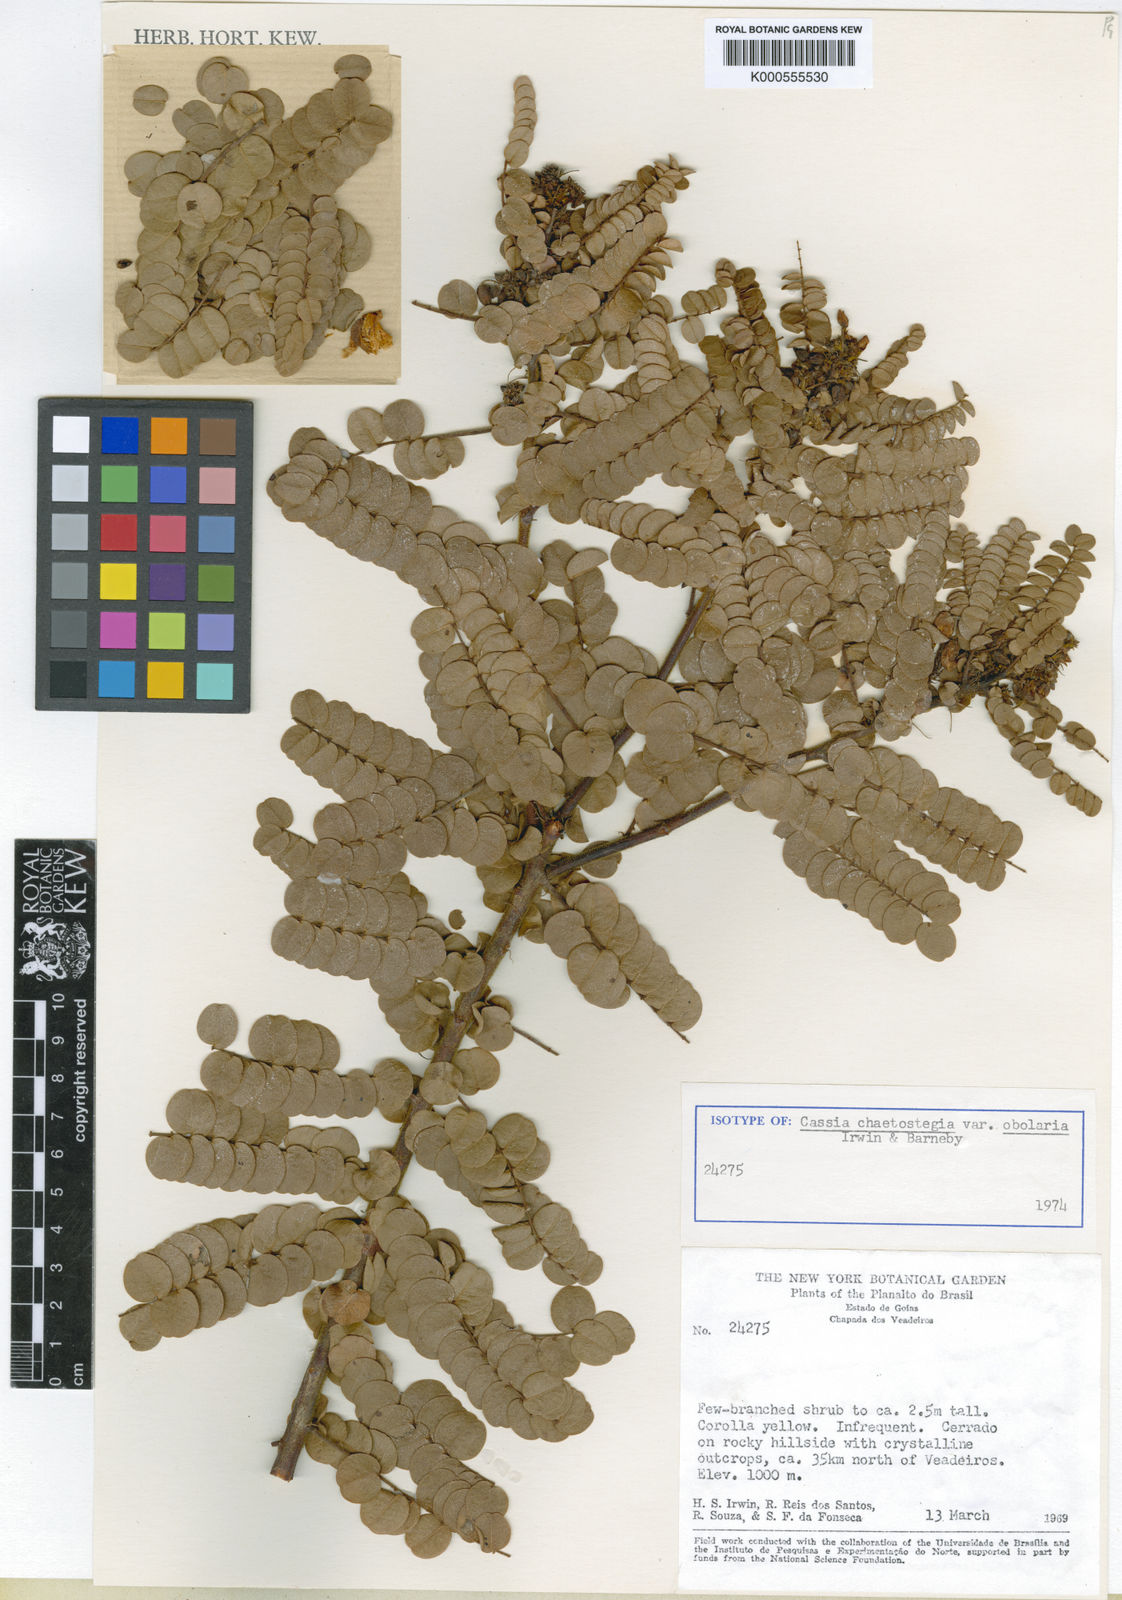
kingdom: Plantae
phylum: Tracheophyta
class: Magnoliopsida
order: Fabales
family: Fabaceae
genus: Chamaecrista
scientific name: Chamaecrista obolaria
